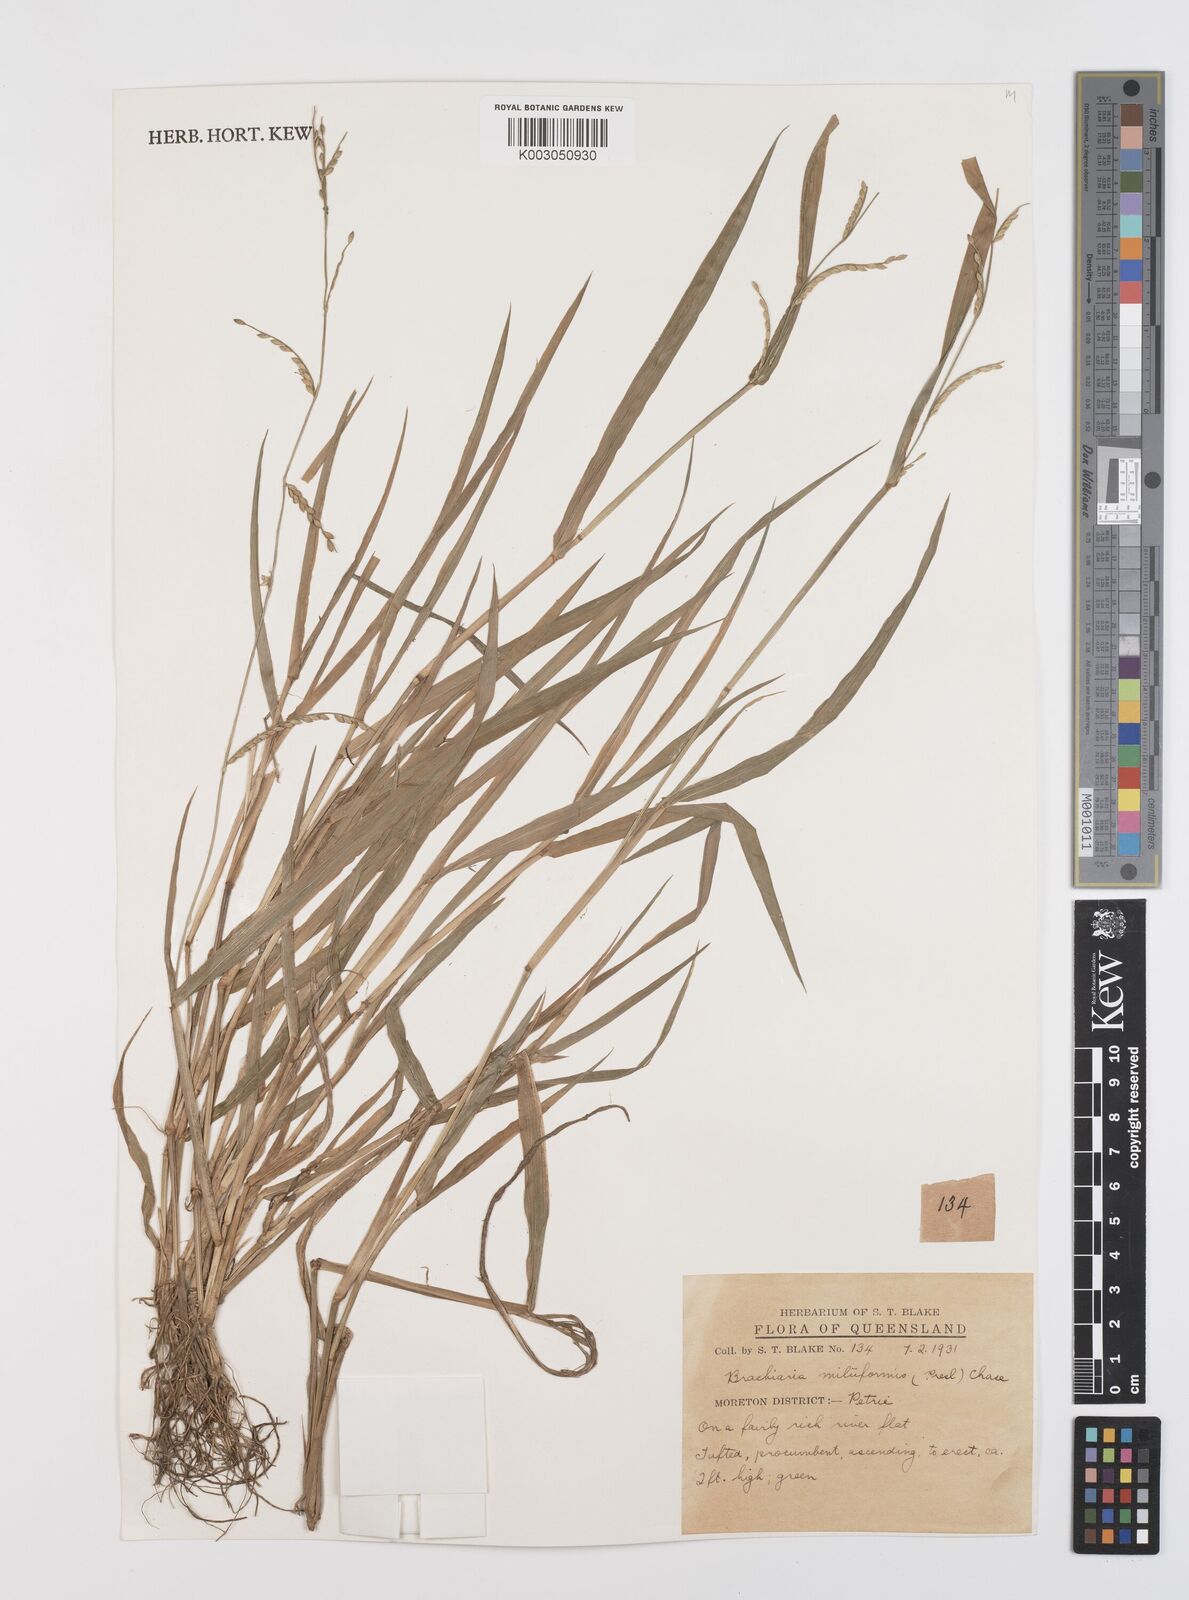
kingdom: Plantae
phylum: Tracheophyta
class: Liliopsida
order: Poales
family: Poaceae
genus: Urochloa
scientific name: Urochloa subquadripara
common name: Armgrass millet
